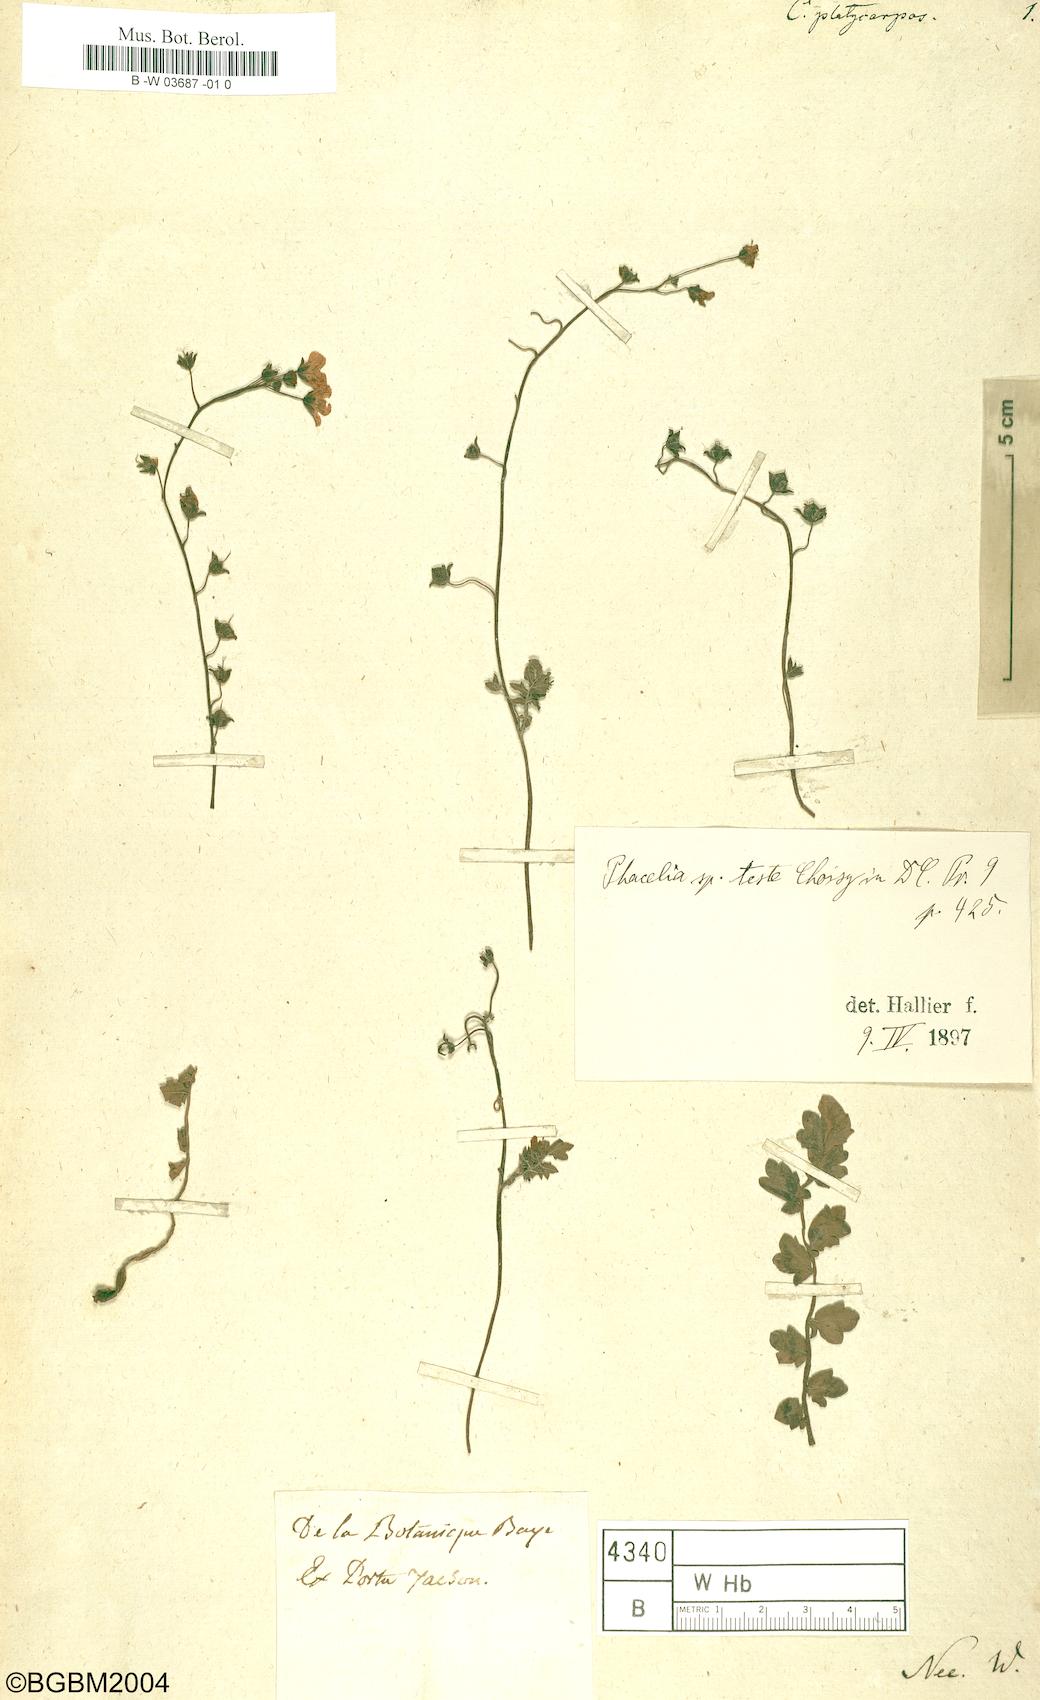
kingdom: Plantae
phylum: Tracheophyta
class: Magnoliopsida
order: Solanales
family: Convolvulaceae
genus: Convolvulus
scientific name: Convolvulus platycarpus
